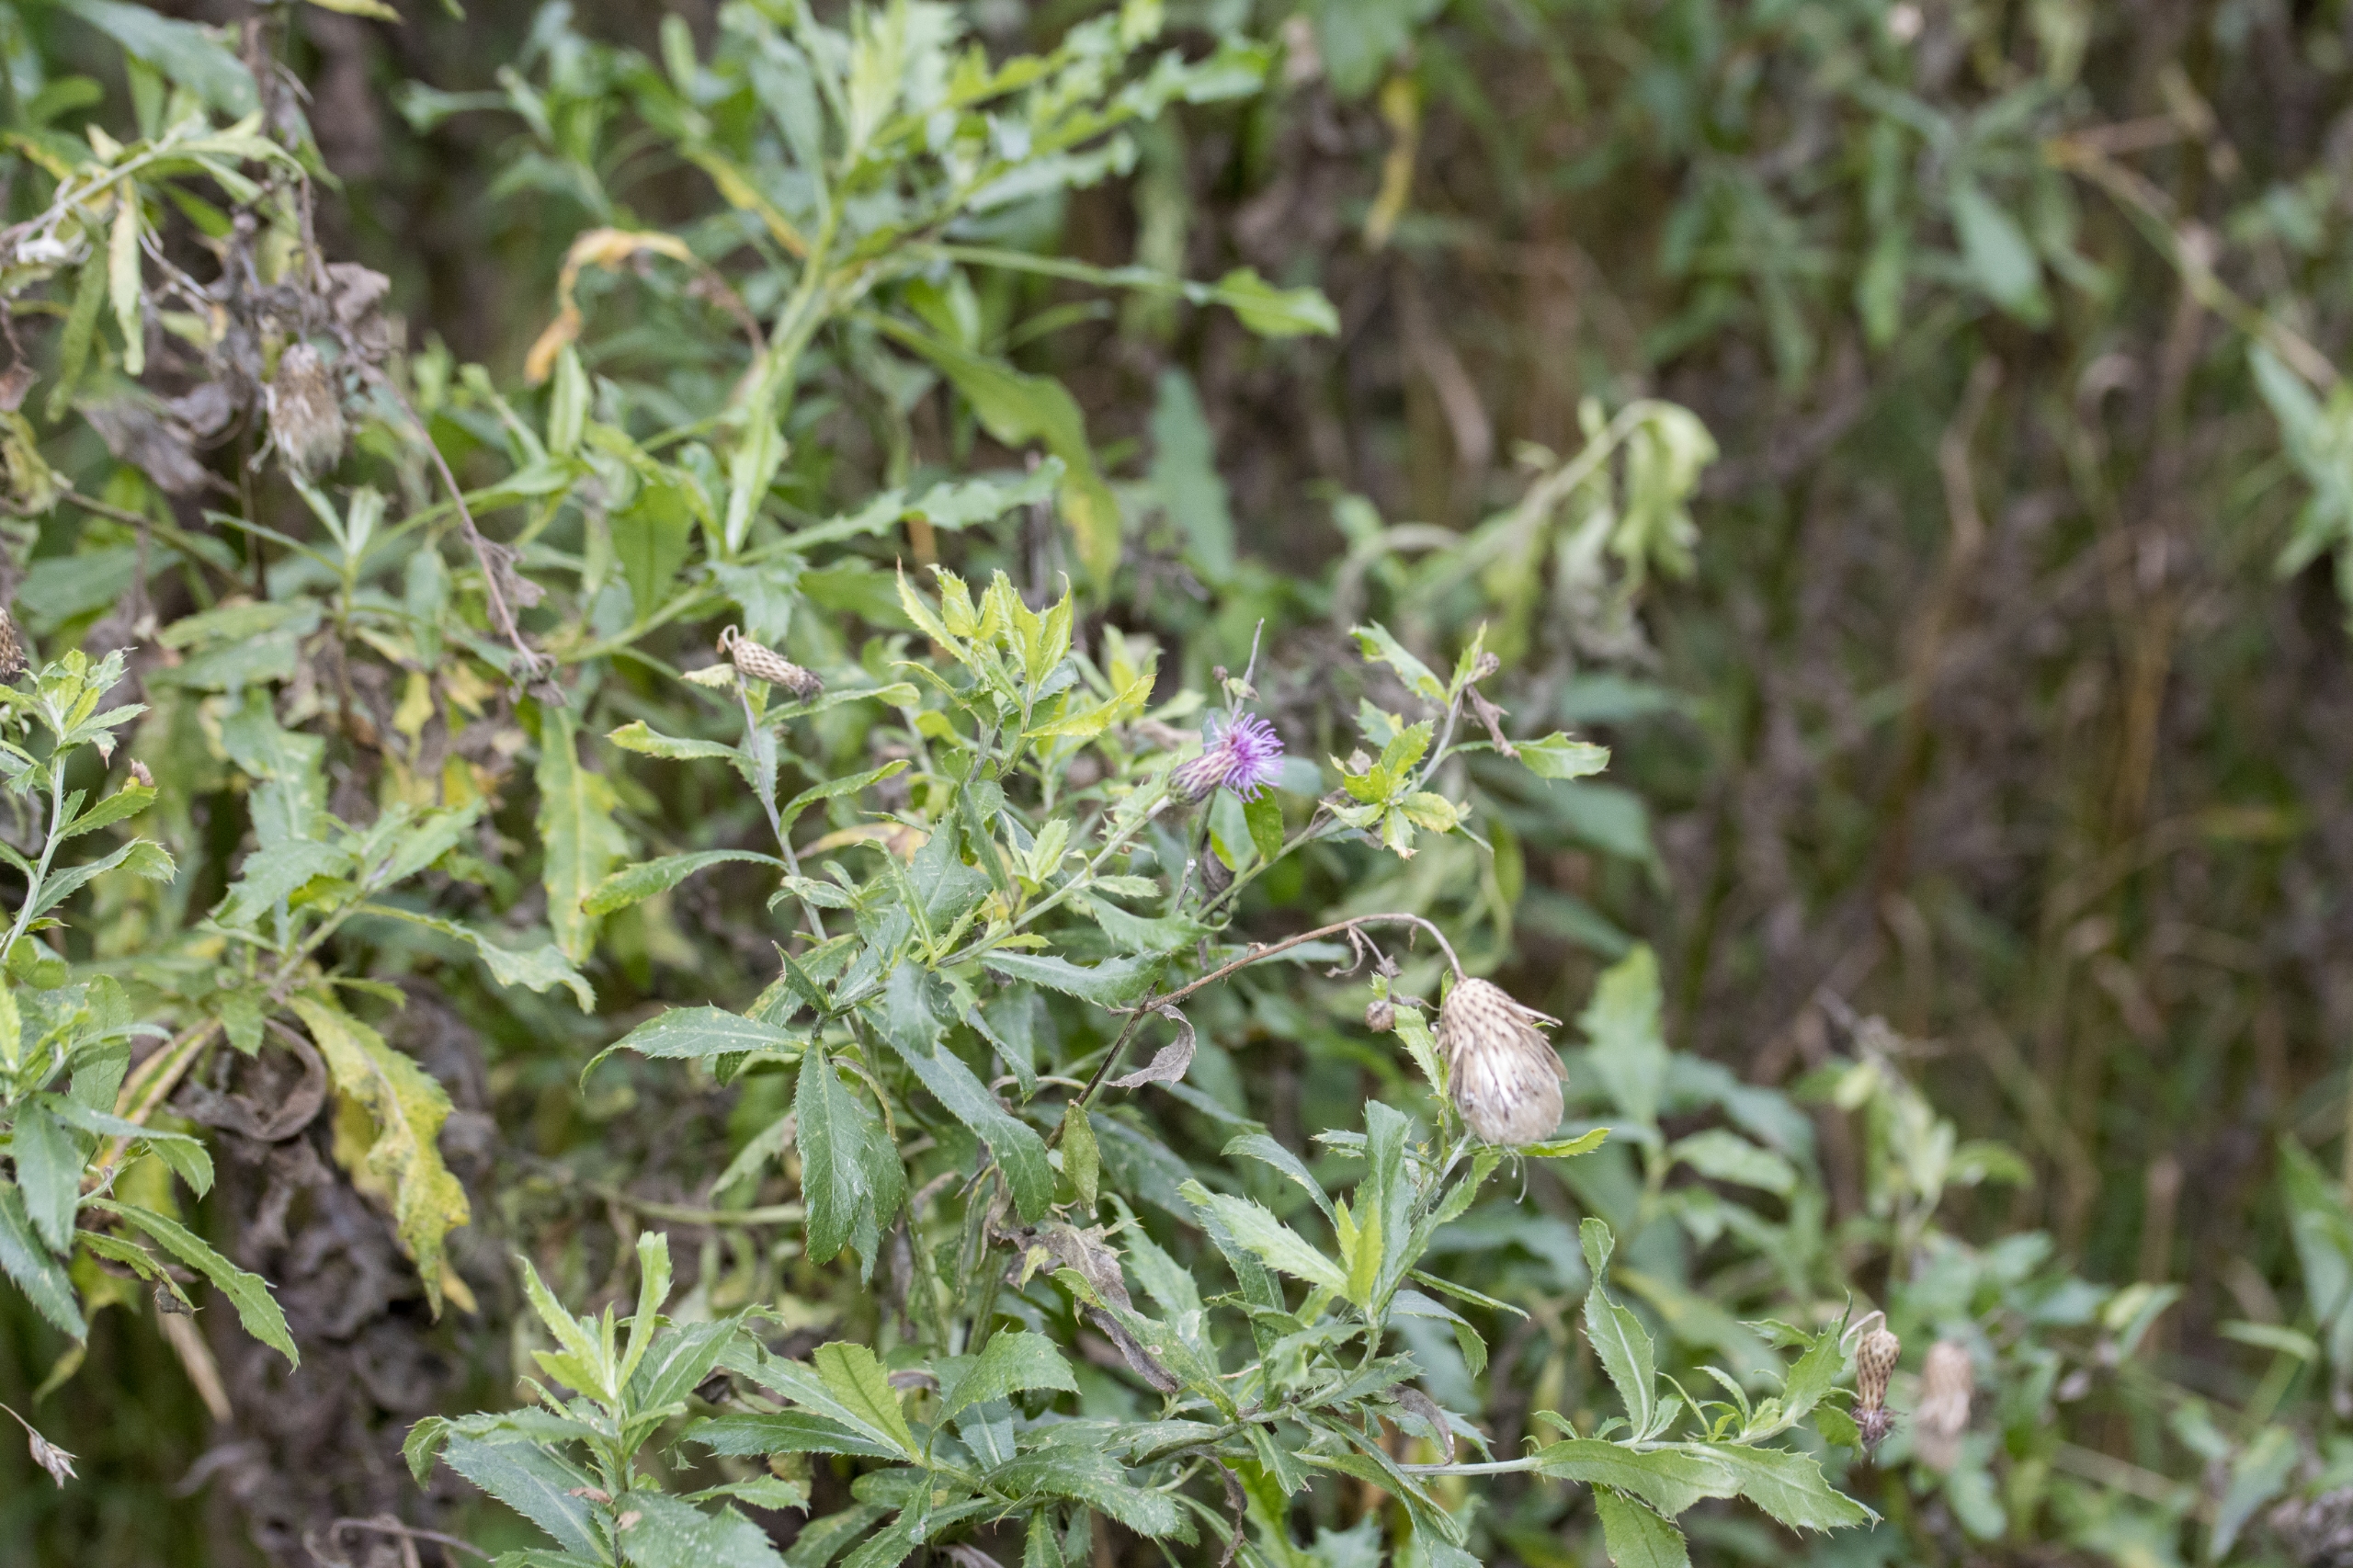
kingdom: Plantae
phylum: Tracheophyta
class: Magnoliopsida
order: Asterales
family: Asteraceae
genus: Cirsium
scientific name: Cirsium arvense
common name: Ager-tidsel
